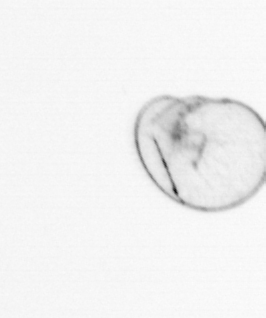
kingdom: Chromista
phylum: Myzozoa
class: Dinophyceae
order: Noctilucales
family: Noctilucaceae
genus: Noctiluca
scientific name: Noctiluca scintillans
